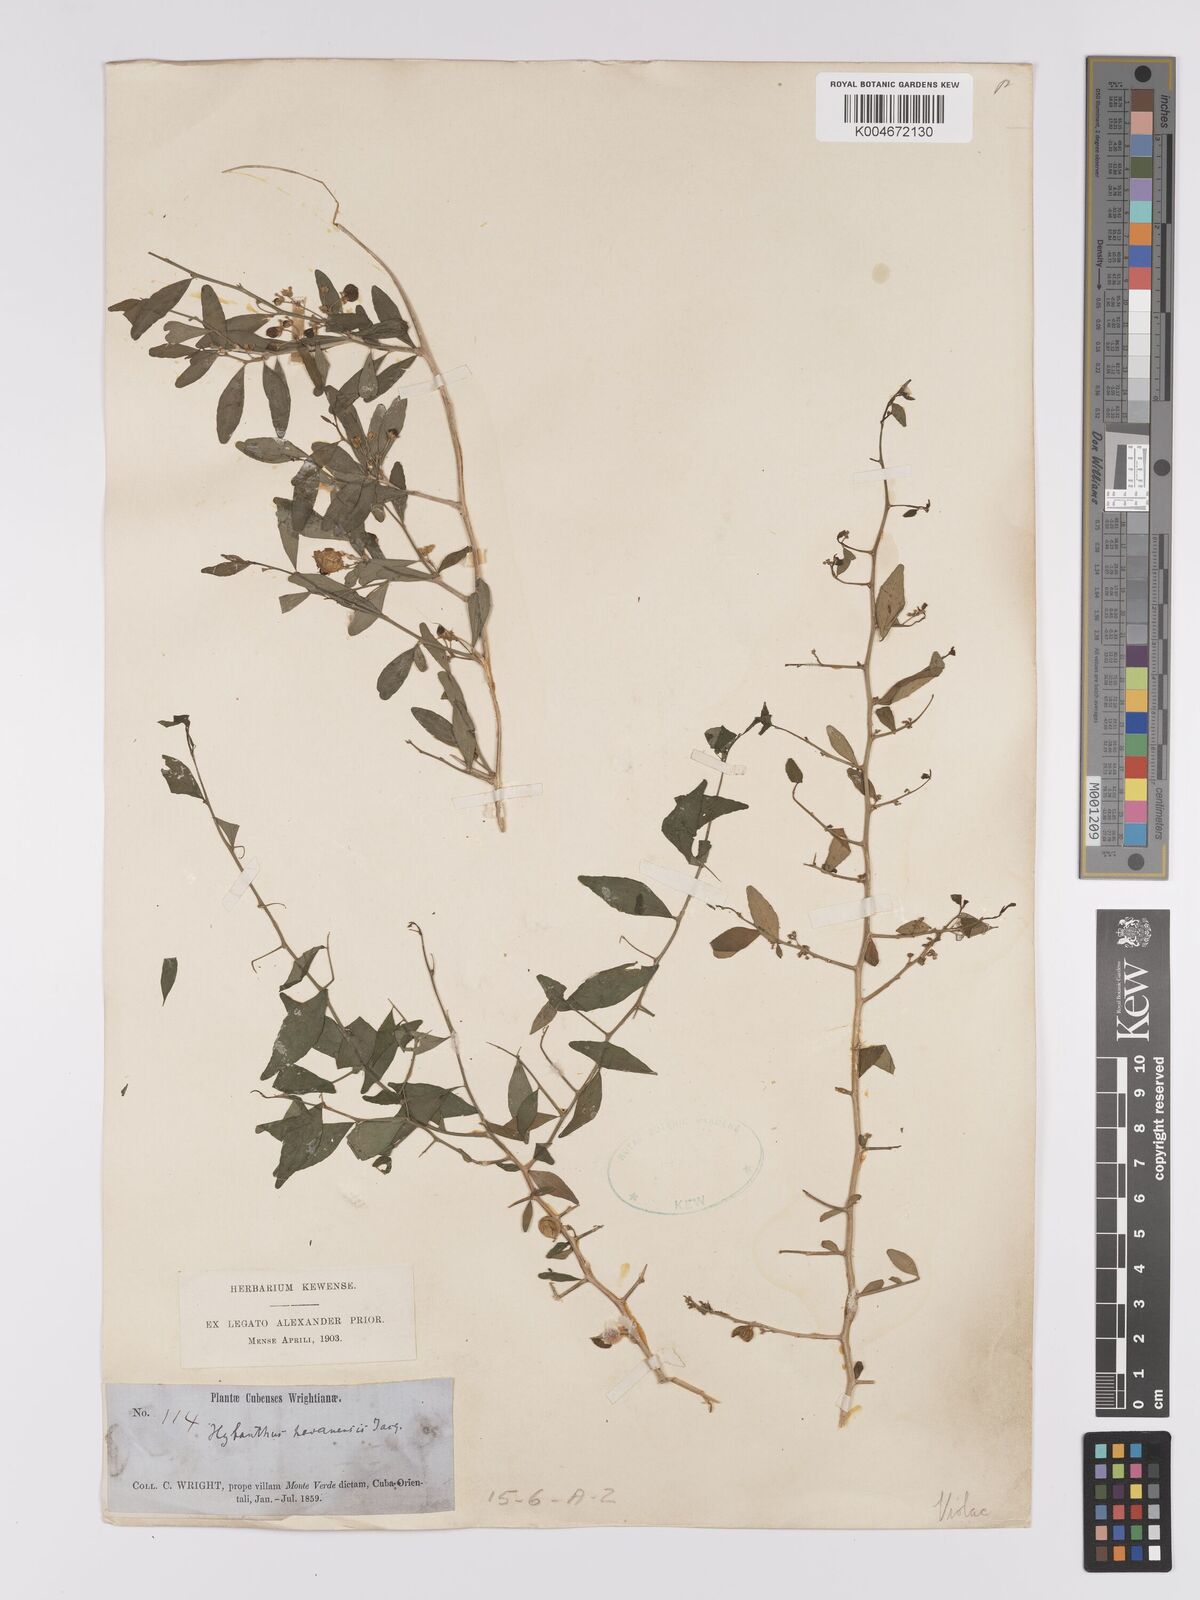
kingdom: Plantae
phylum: Tracheophyta
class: Magnoliopsida
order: Malpighiales
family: Violaceae
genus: Hybanthus
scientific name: Hybanthus havanensis
